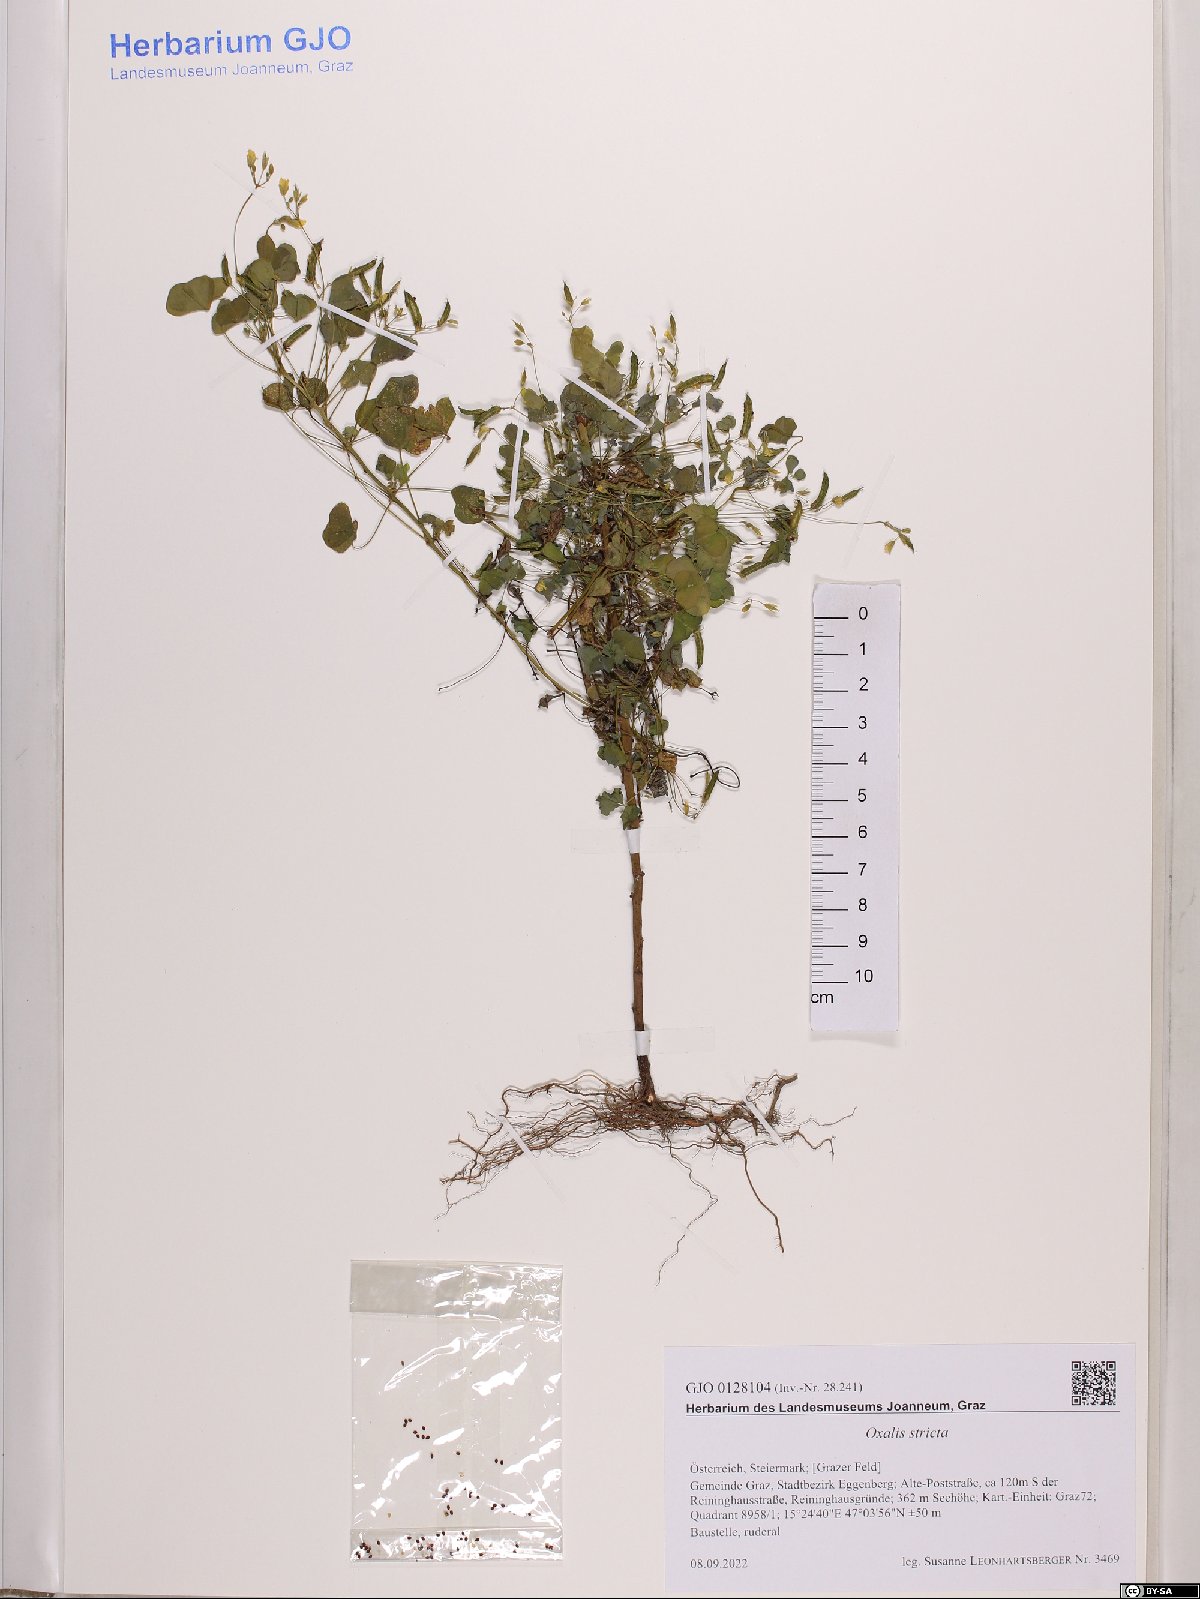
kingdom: Plantae
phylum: Tracheophyta
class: Magnoliopsida
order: Oxalidales
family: Oxalidaceae
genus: Oxalis
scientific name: Oxalis stricta
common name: Upright yellow-sorrel
